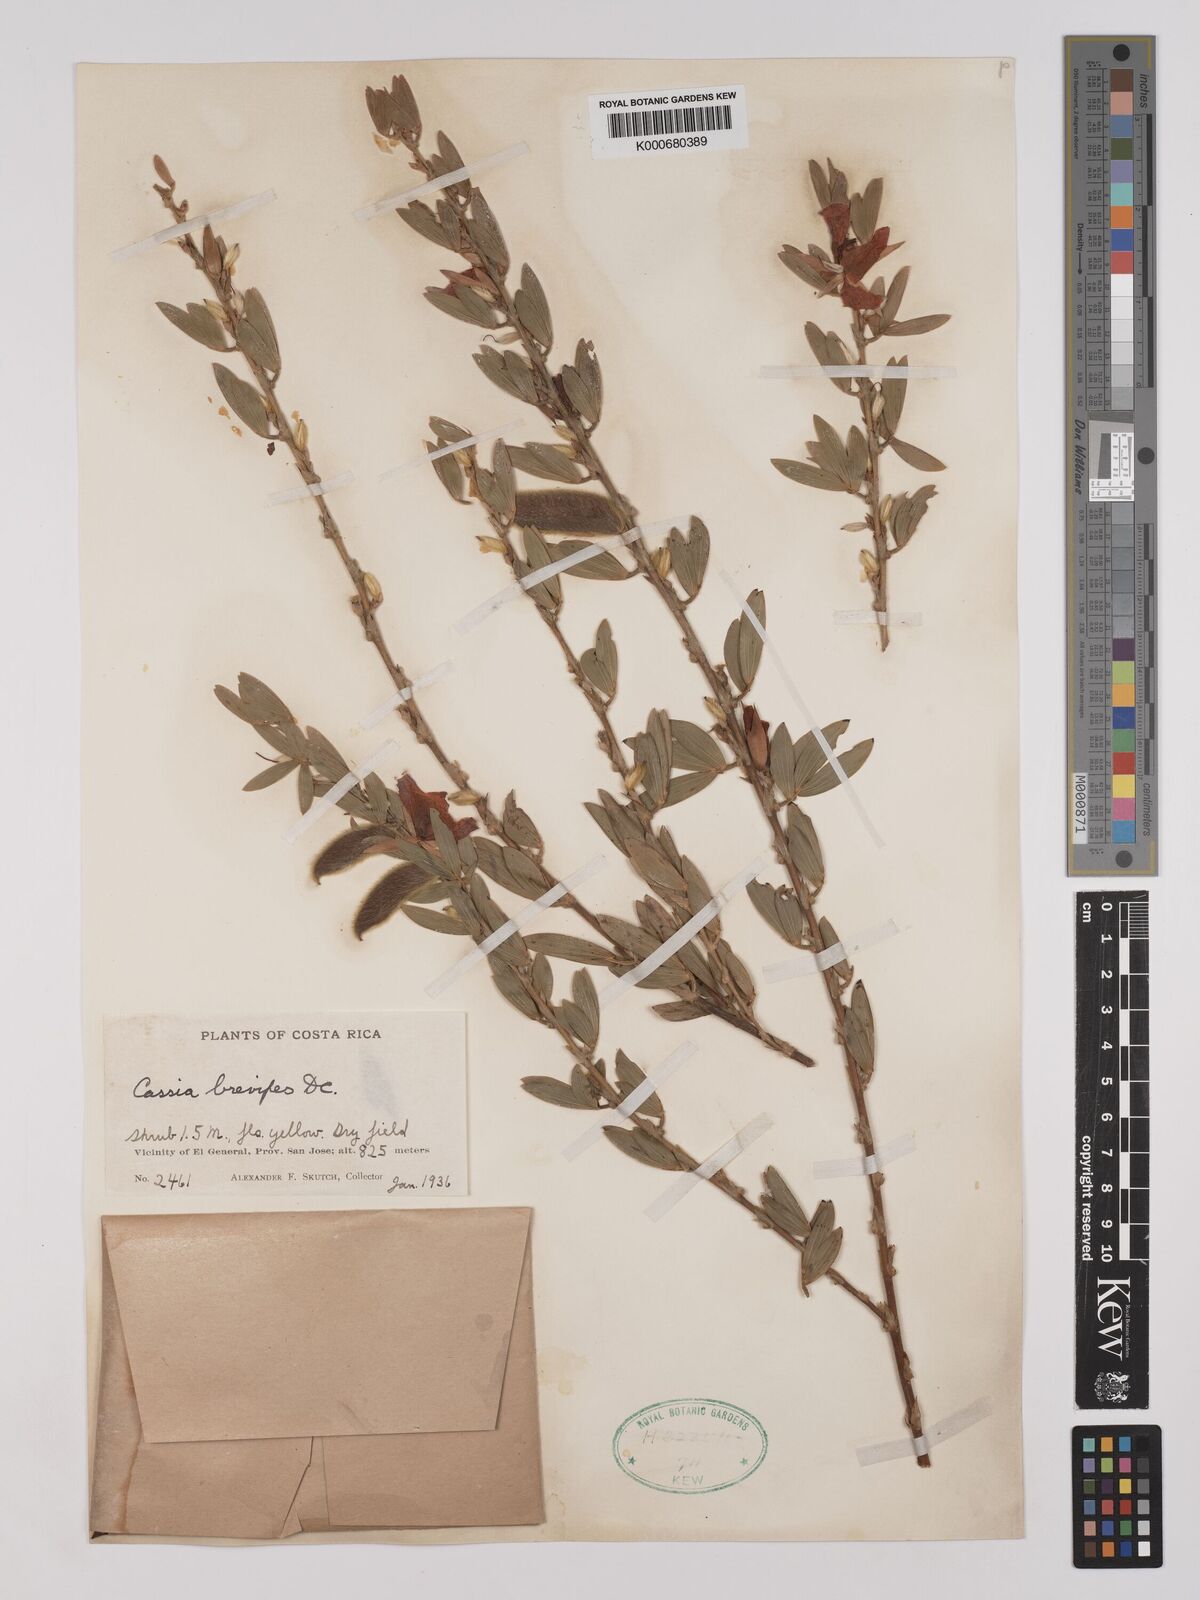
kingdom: Plantae
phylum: Tracheophyta
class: Magnoliopsida
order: Fabales
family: Fabaceae
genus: Chamaecrista
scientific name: Chamaecrista desvauxii
